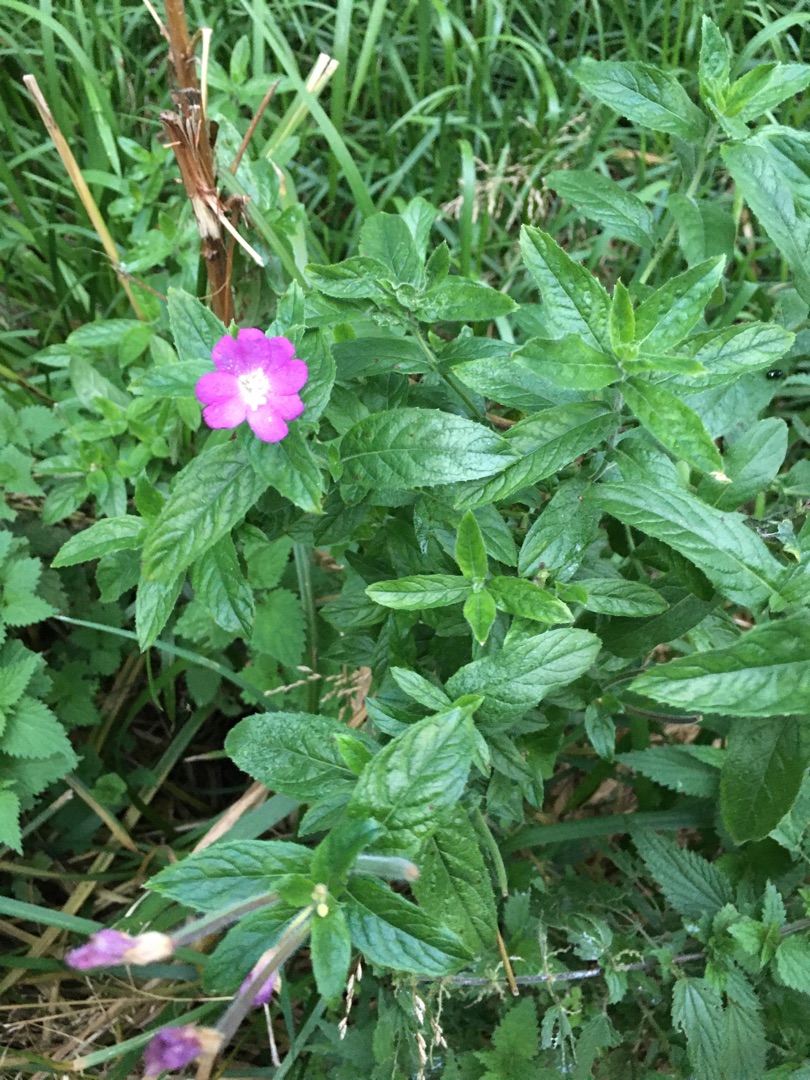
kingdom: Plantae
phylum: Tracheophyta
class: Magnoliopsida
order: Myrtales
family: Onagraceae
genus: Epilobium
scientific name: Epilobium hirsutum
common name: Lådden dueurt
